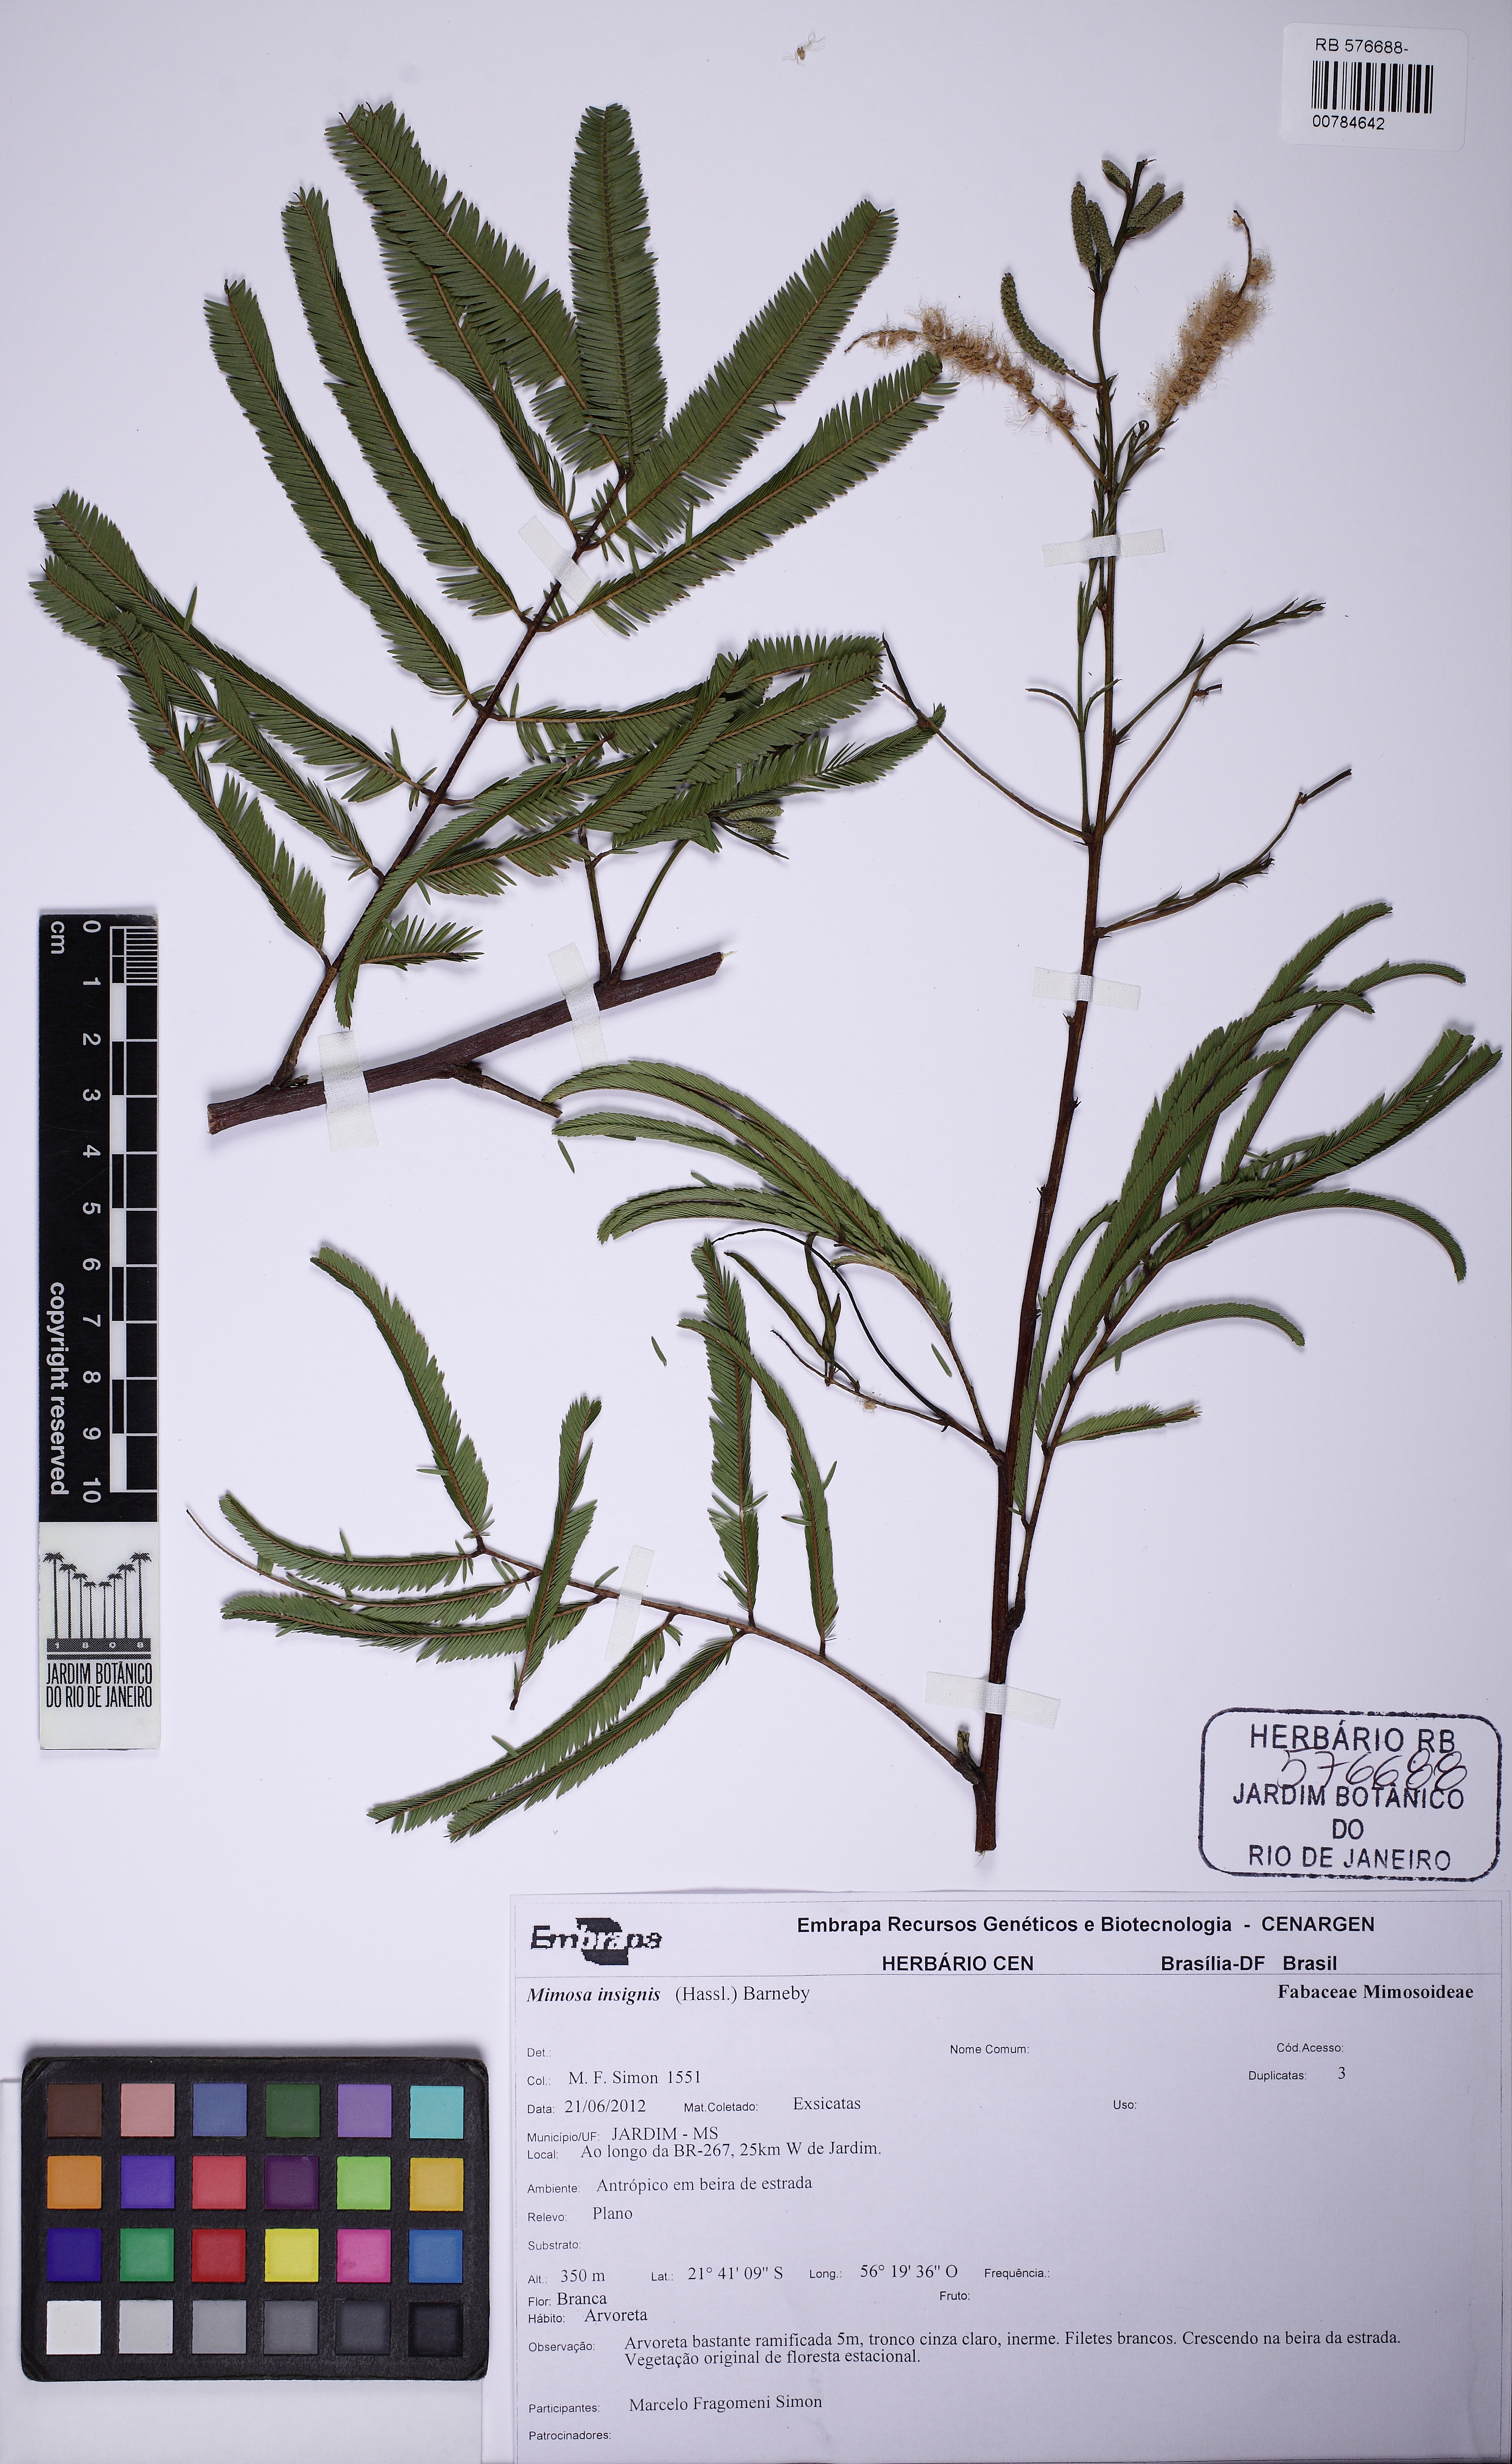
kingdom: Plantae
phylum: Tracheophyta
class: Magnoliopsida
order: Fabales
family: Fabaceae
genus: Inga
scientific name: Inga insignis
